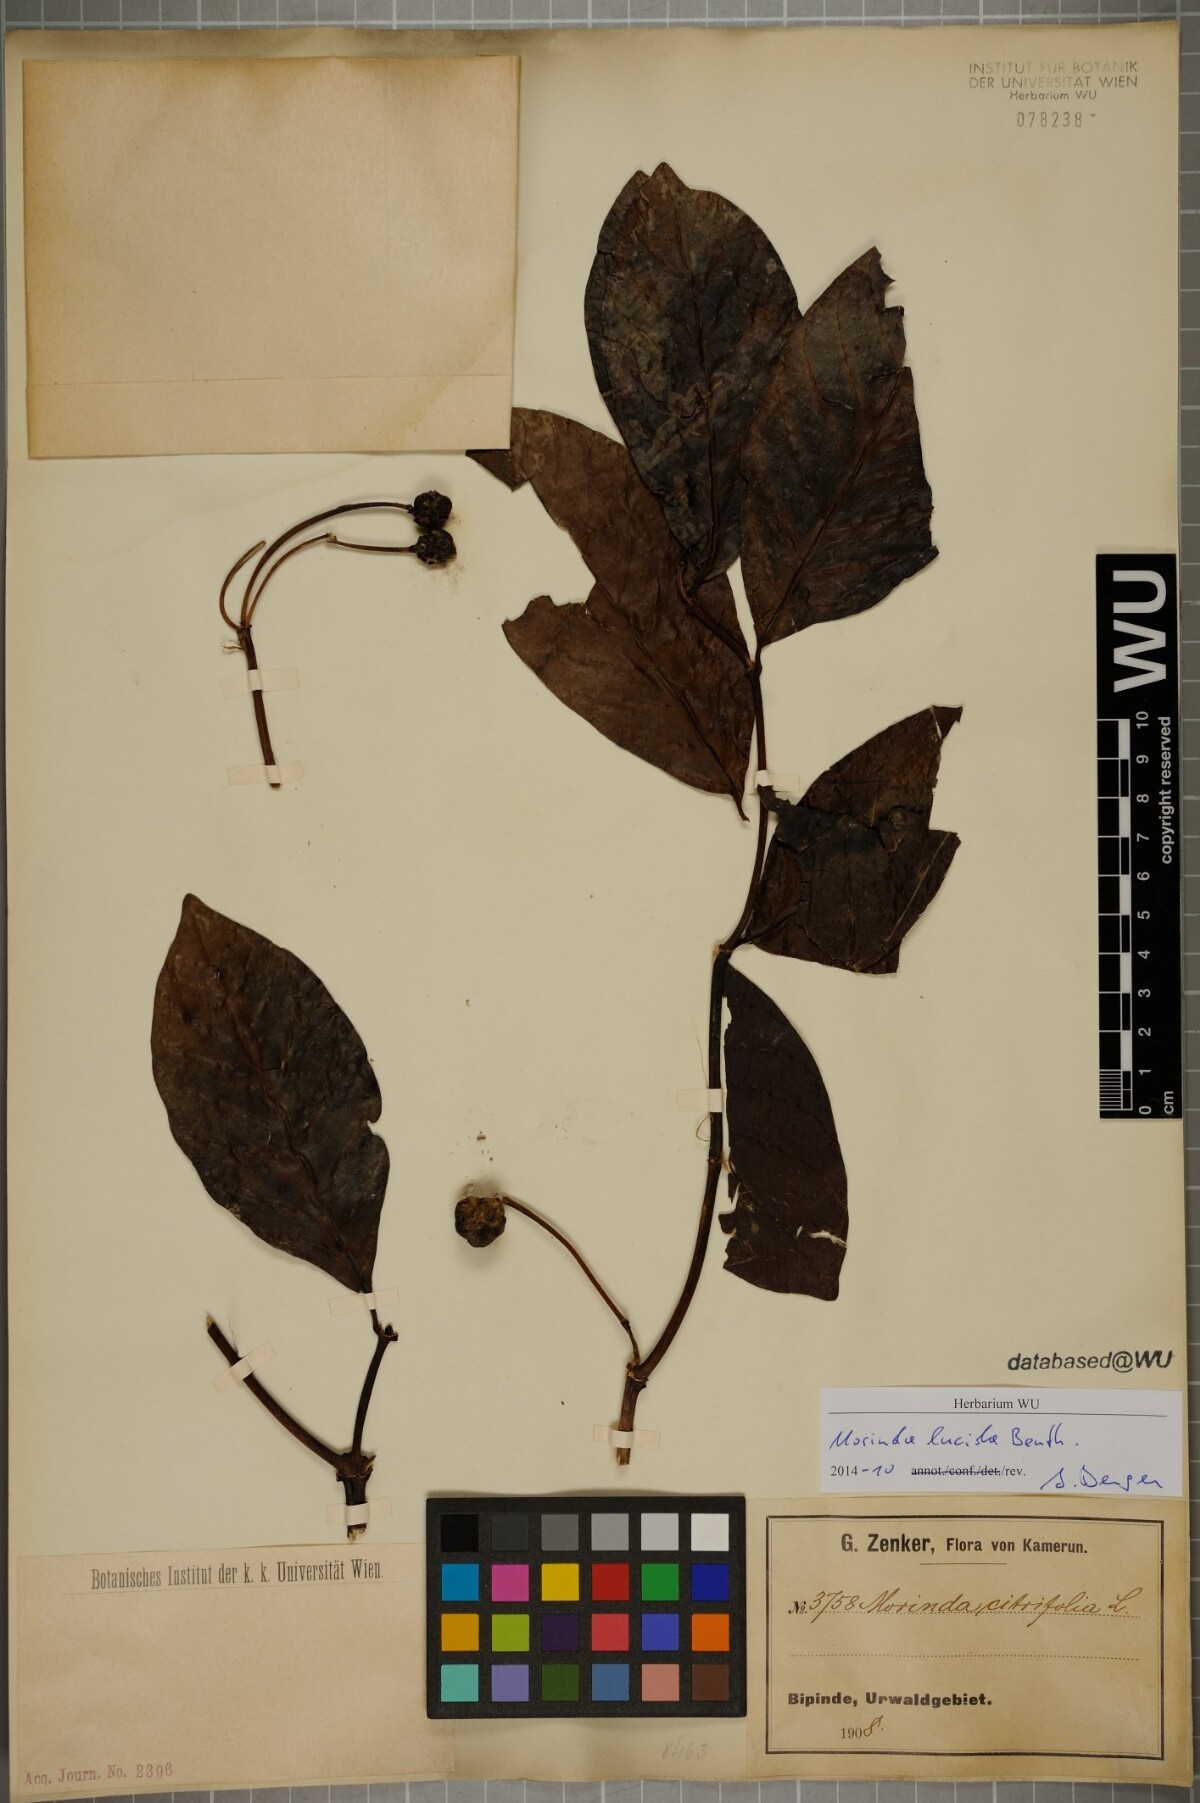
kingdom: Plantae
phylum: Tracheophyta
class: Magnoliopsida
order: Gentianales
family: Rubiaceae
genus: Morinda
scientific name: Morinda lucida
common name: Brimstonetree
